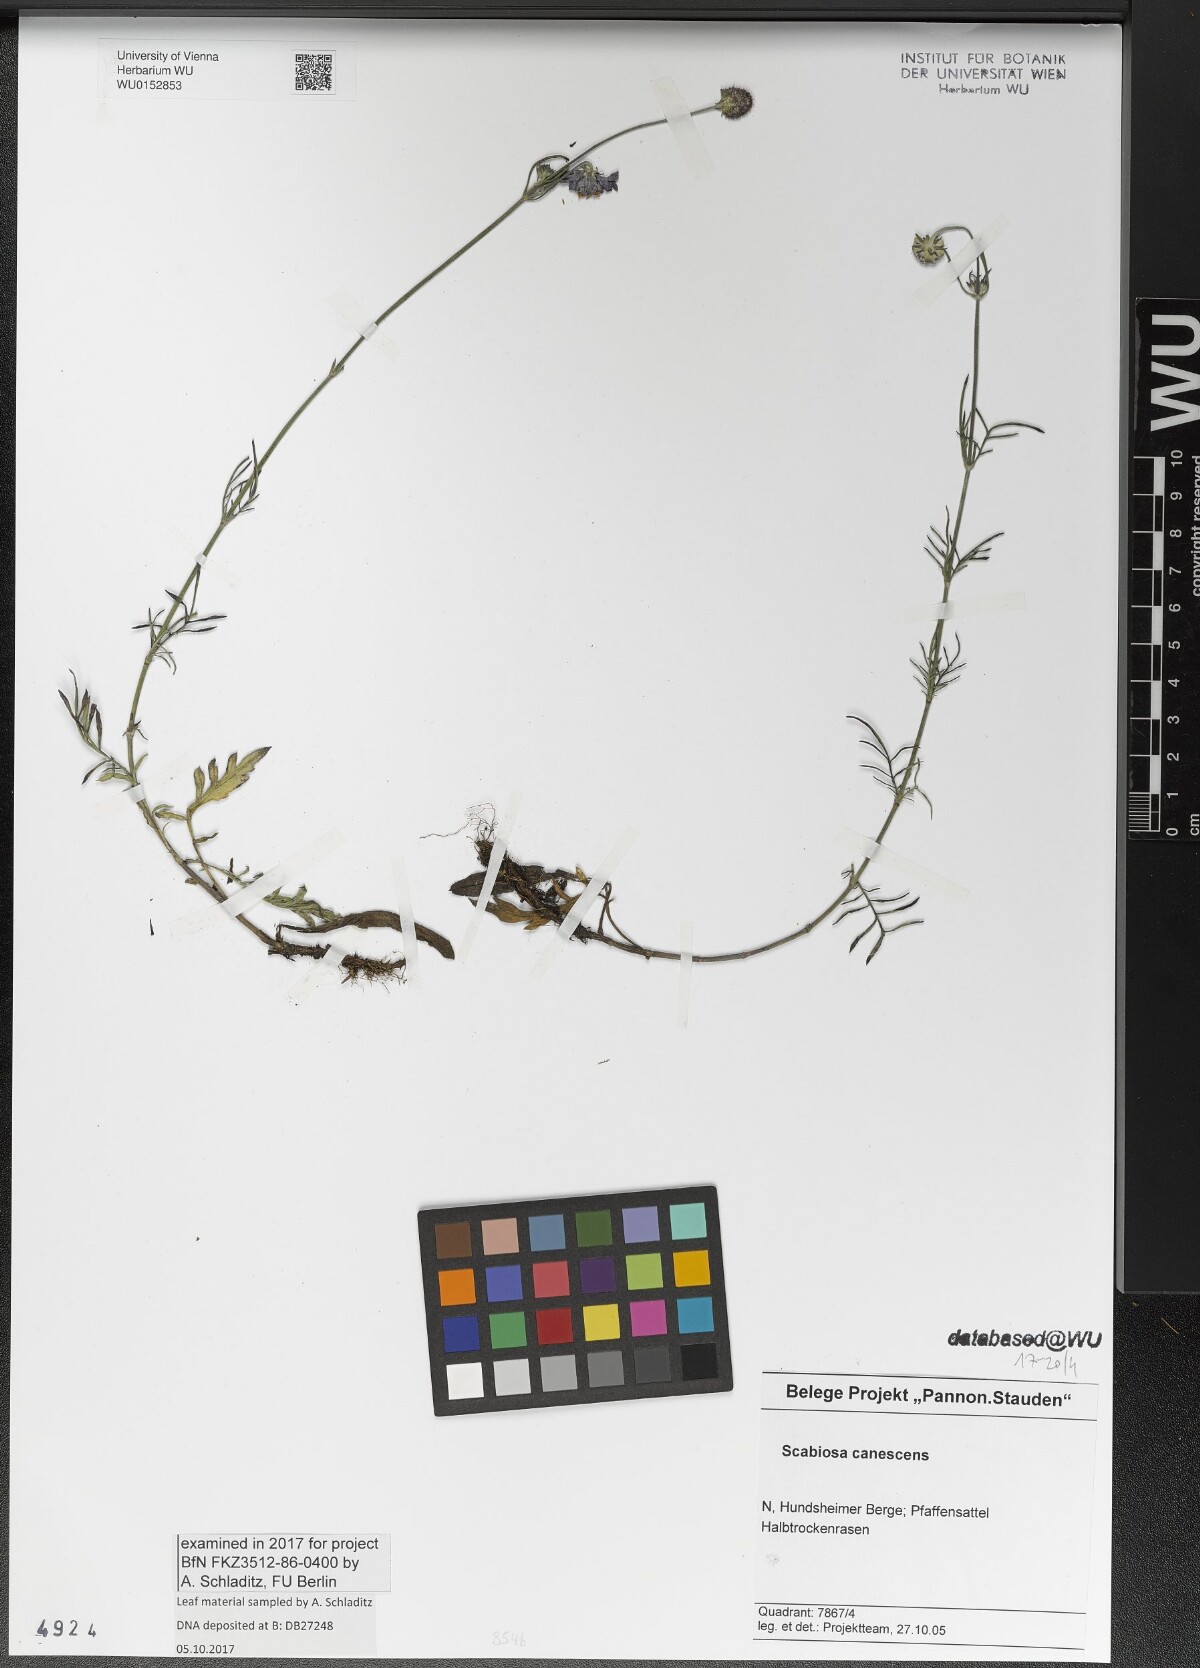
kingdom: Plantae
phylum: Tracheophyta
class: Magnoliopsida
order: Dipsacales
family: Caprifoliaceae
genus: Scabiosa
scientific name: Scabiosa canescens
